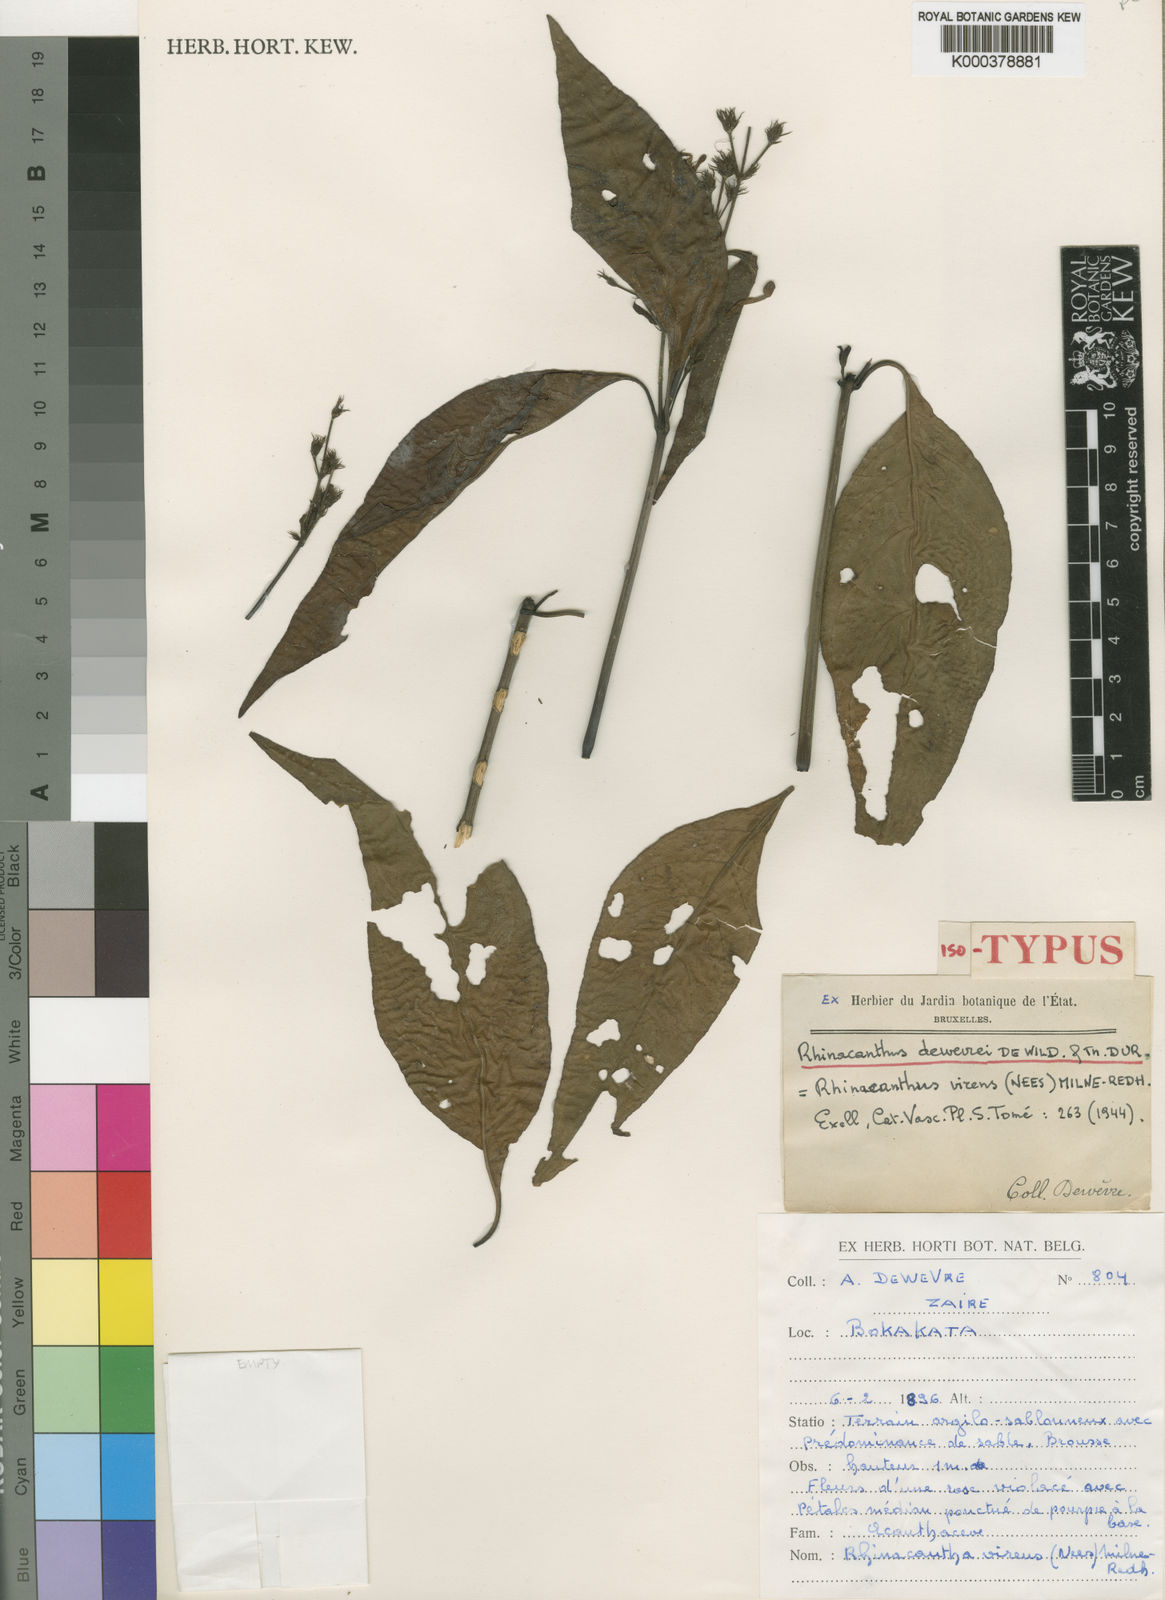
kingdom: Plantae
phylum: Tracheophyta
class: Magnoliopsida
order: Lamiales
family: Acanthaceae
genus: Rhinacanthus
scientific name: Rhinacanthus virens
